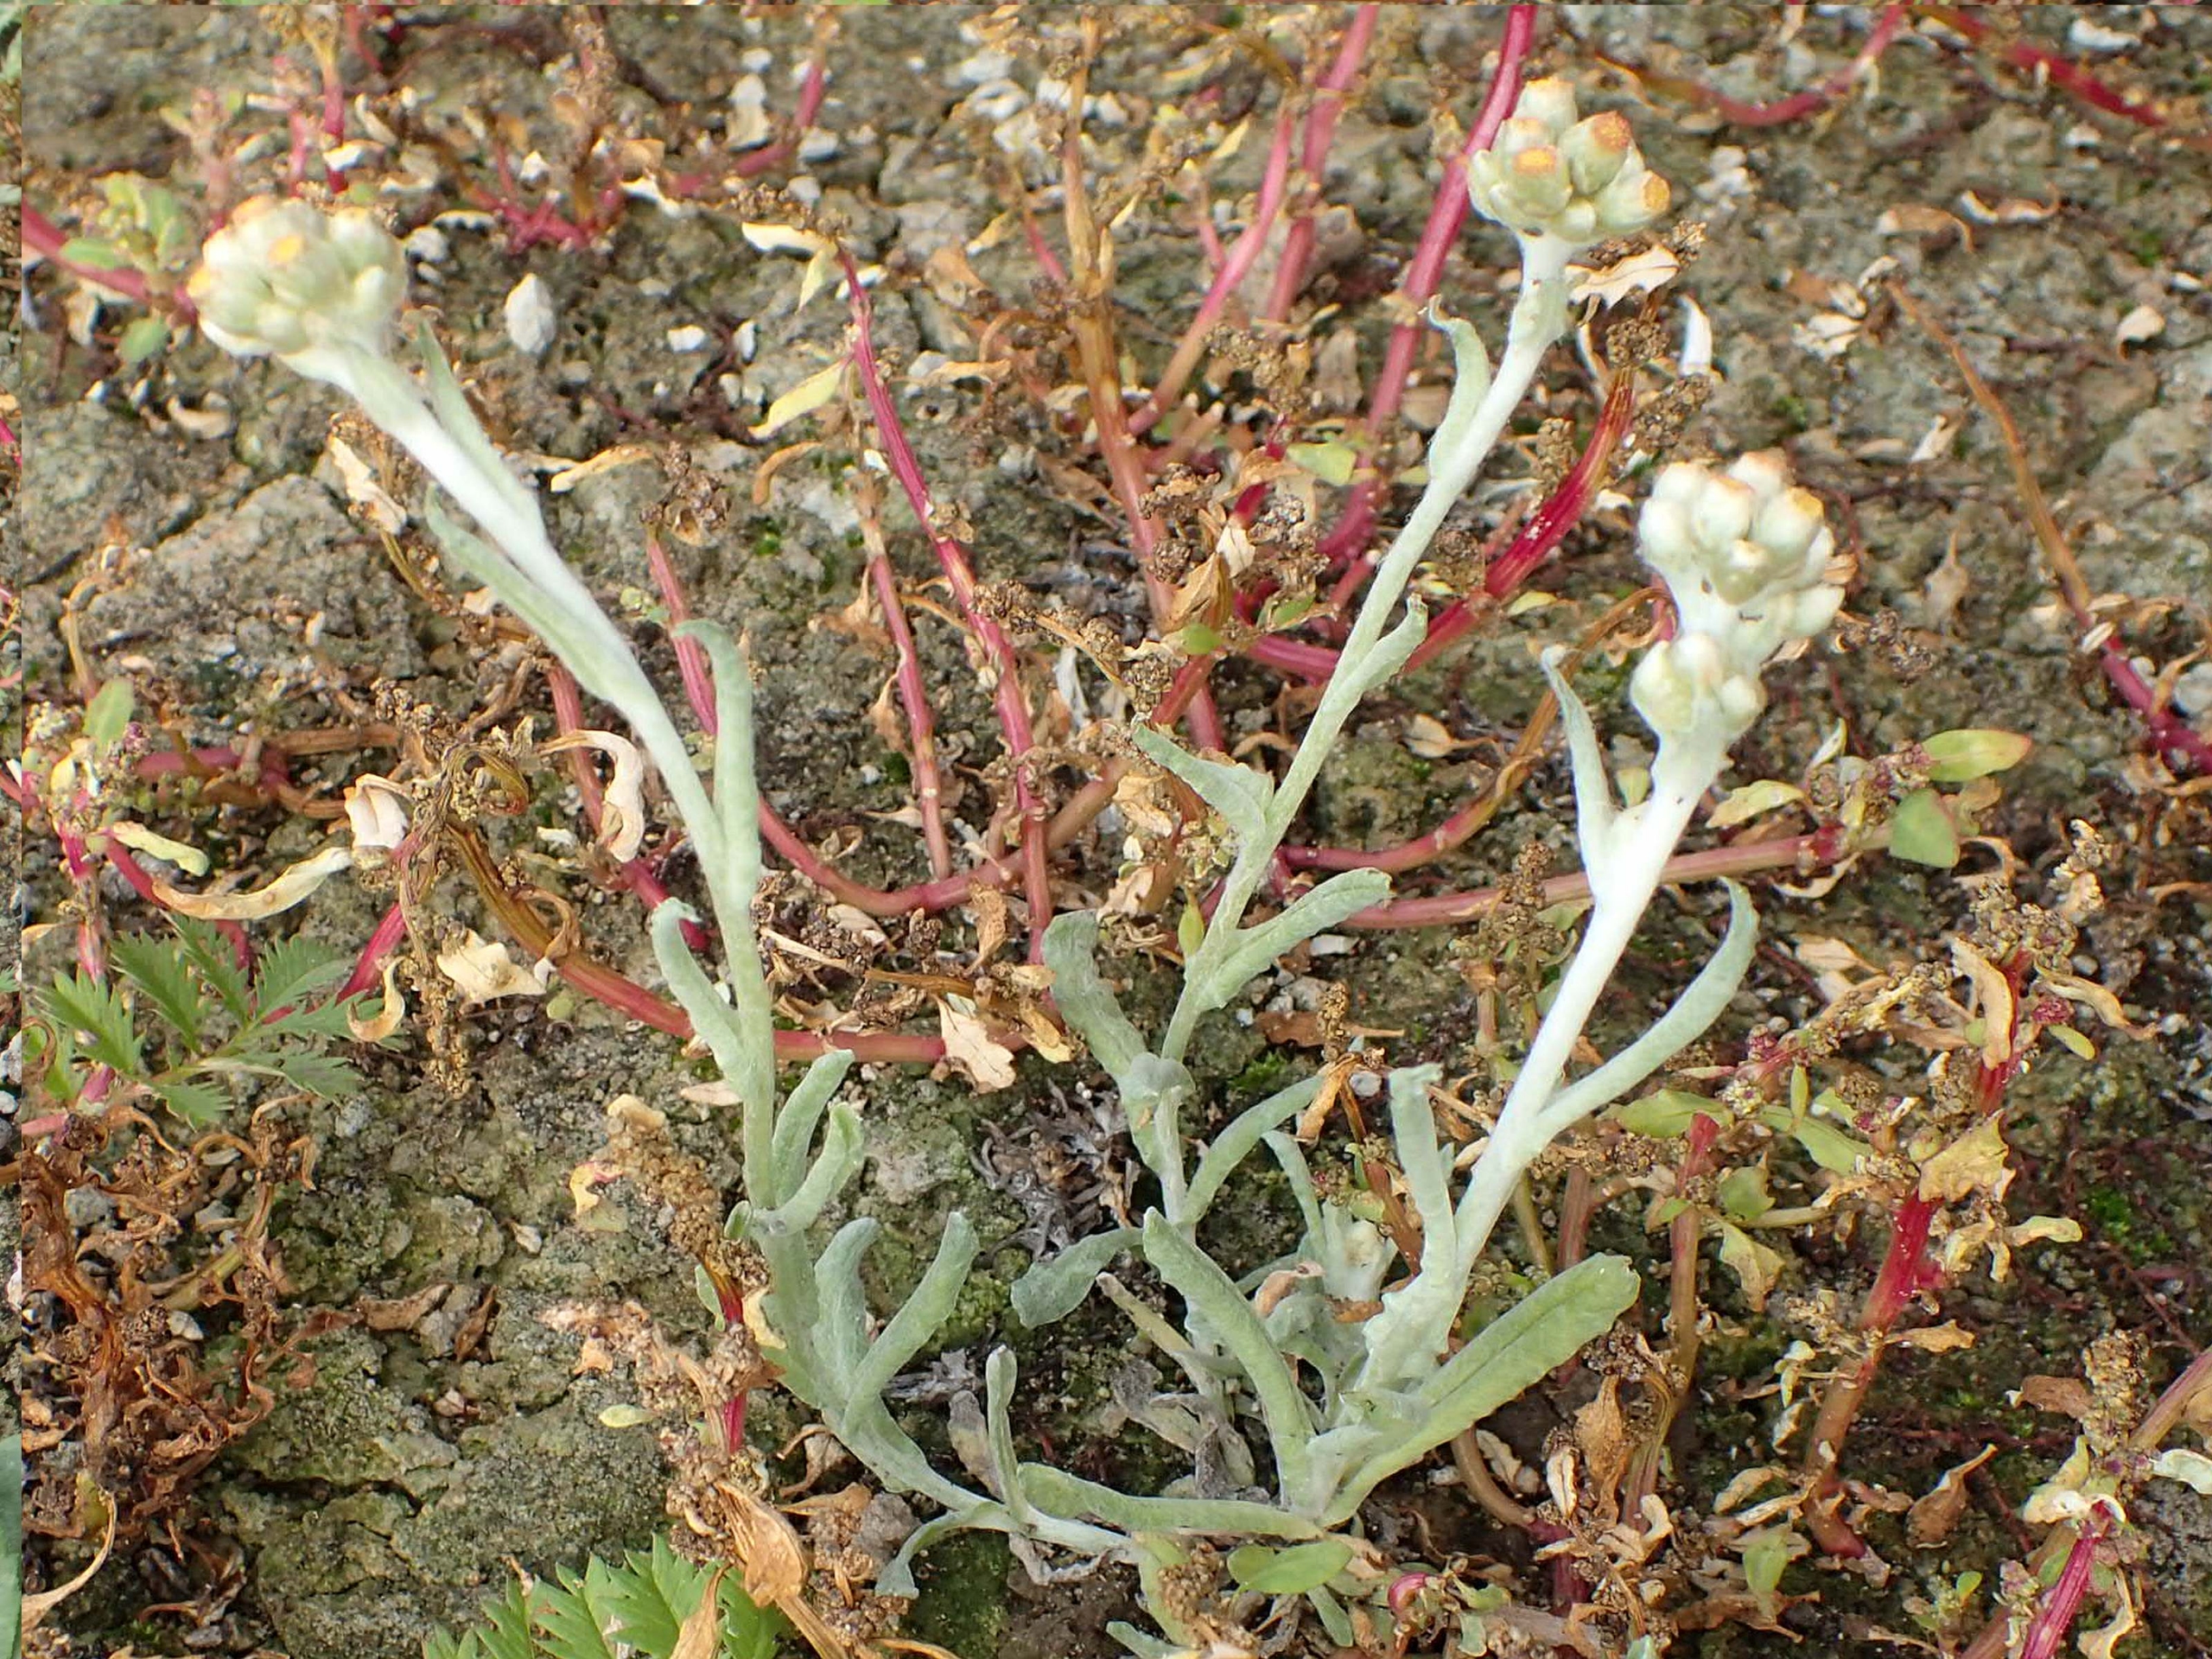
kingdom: Plantae
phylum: Tracheophyta
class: Magnoliopsida
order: Asterales
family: Asteraceae
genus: Helichrysum
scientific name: Helichrysum luteoalbum
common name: Gulhvid evighedsblomst
